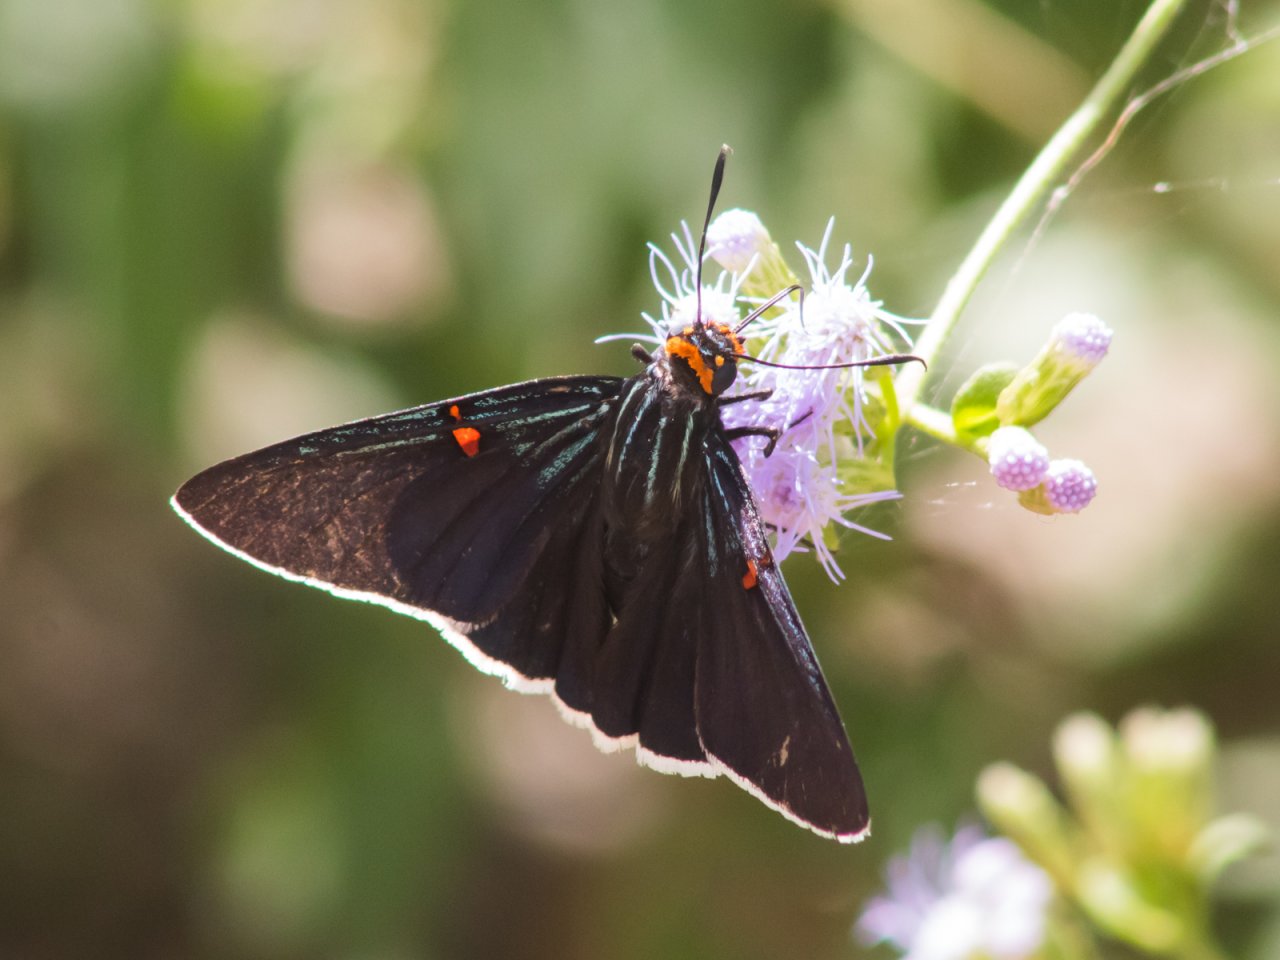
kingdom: Animalia
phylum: Arthropoda
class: Insecta
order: Lepidoptera
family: Hesperiidae
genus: Phocides
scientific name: Phocides polybius
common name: Guava Skipper
